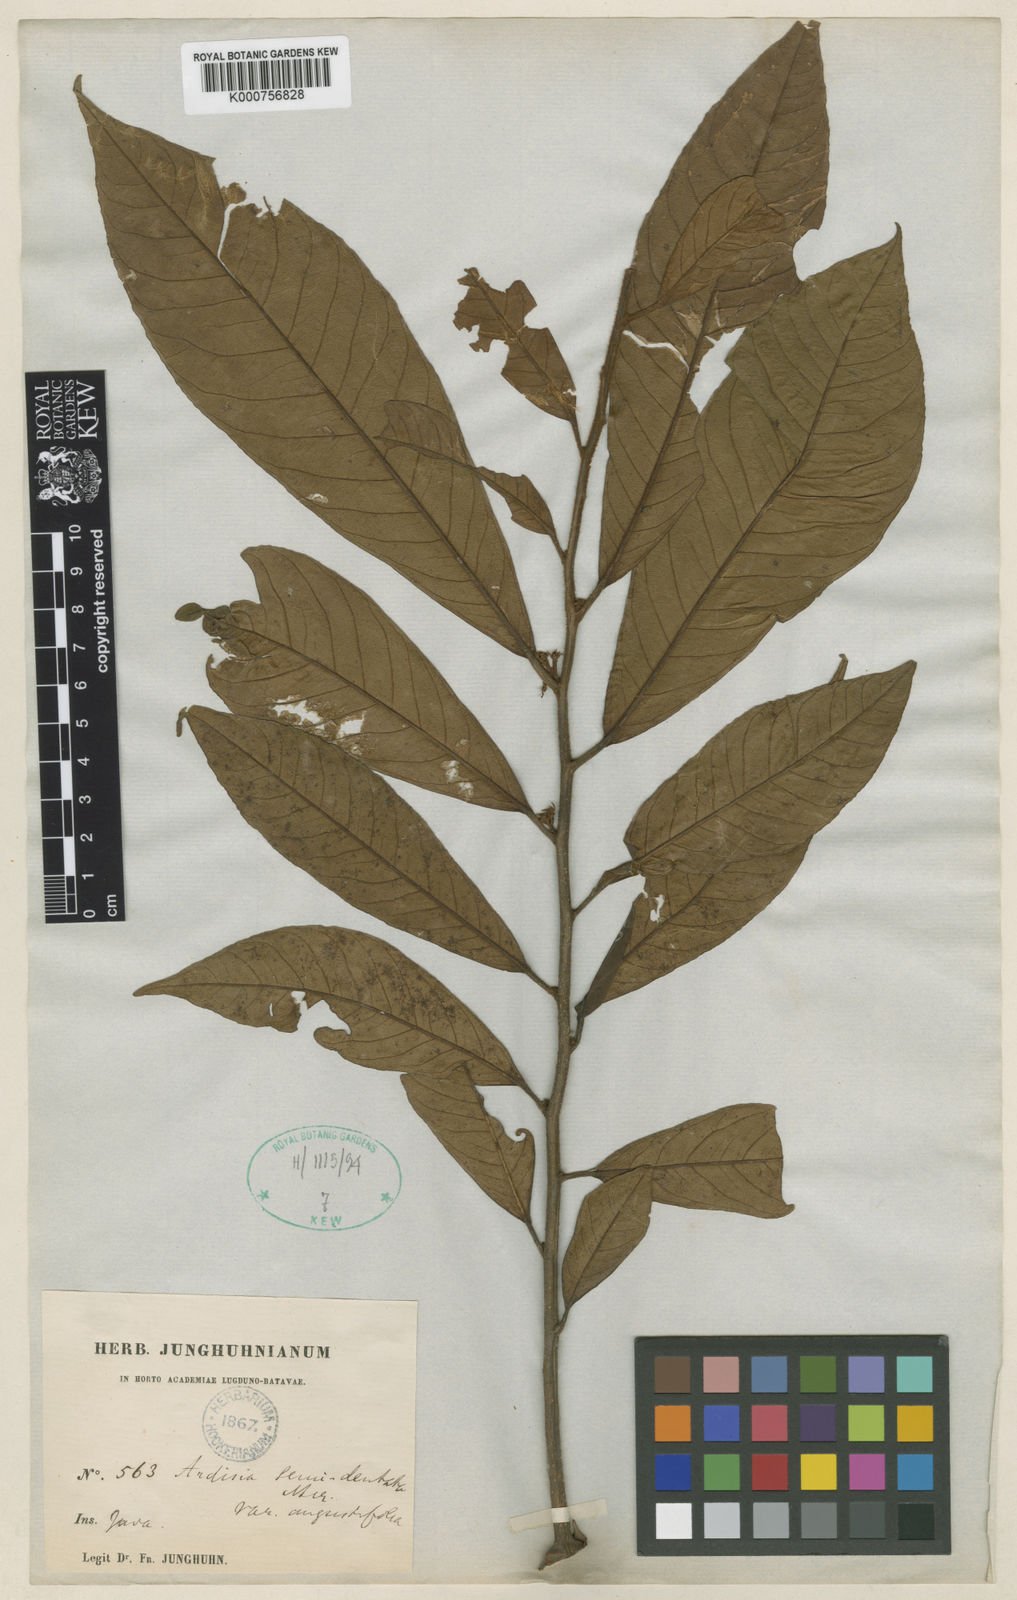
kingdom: Plantae
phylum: Tracheophyta
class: Magnoliopsida
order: Ericales
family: Primulaceae
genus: Ardisia
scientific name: Ardisia fuliginosa
